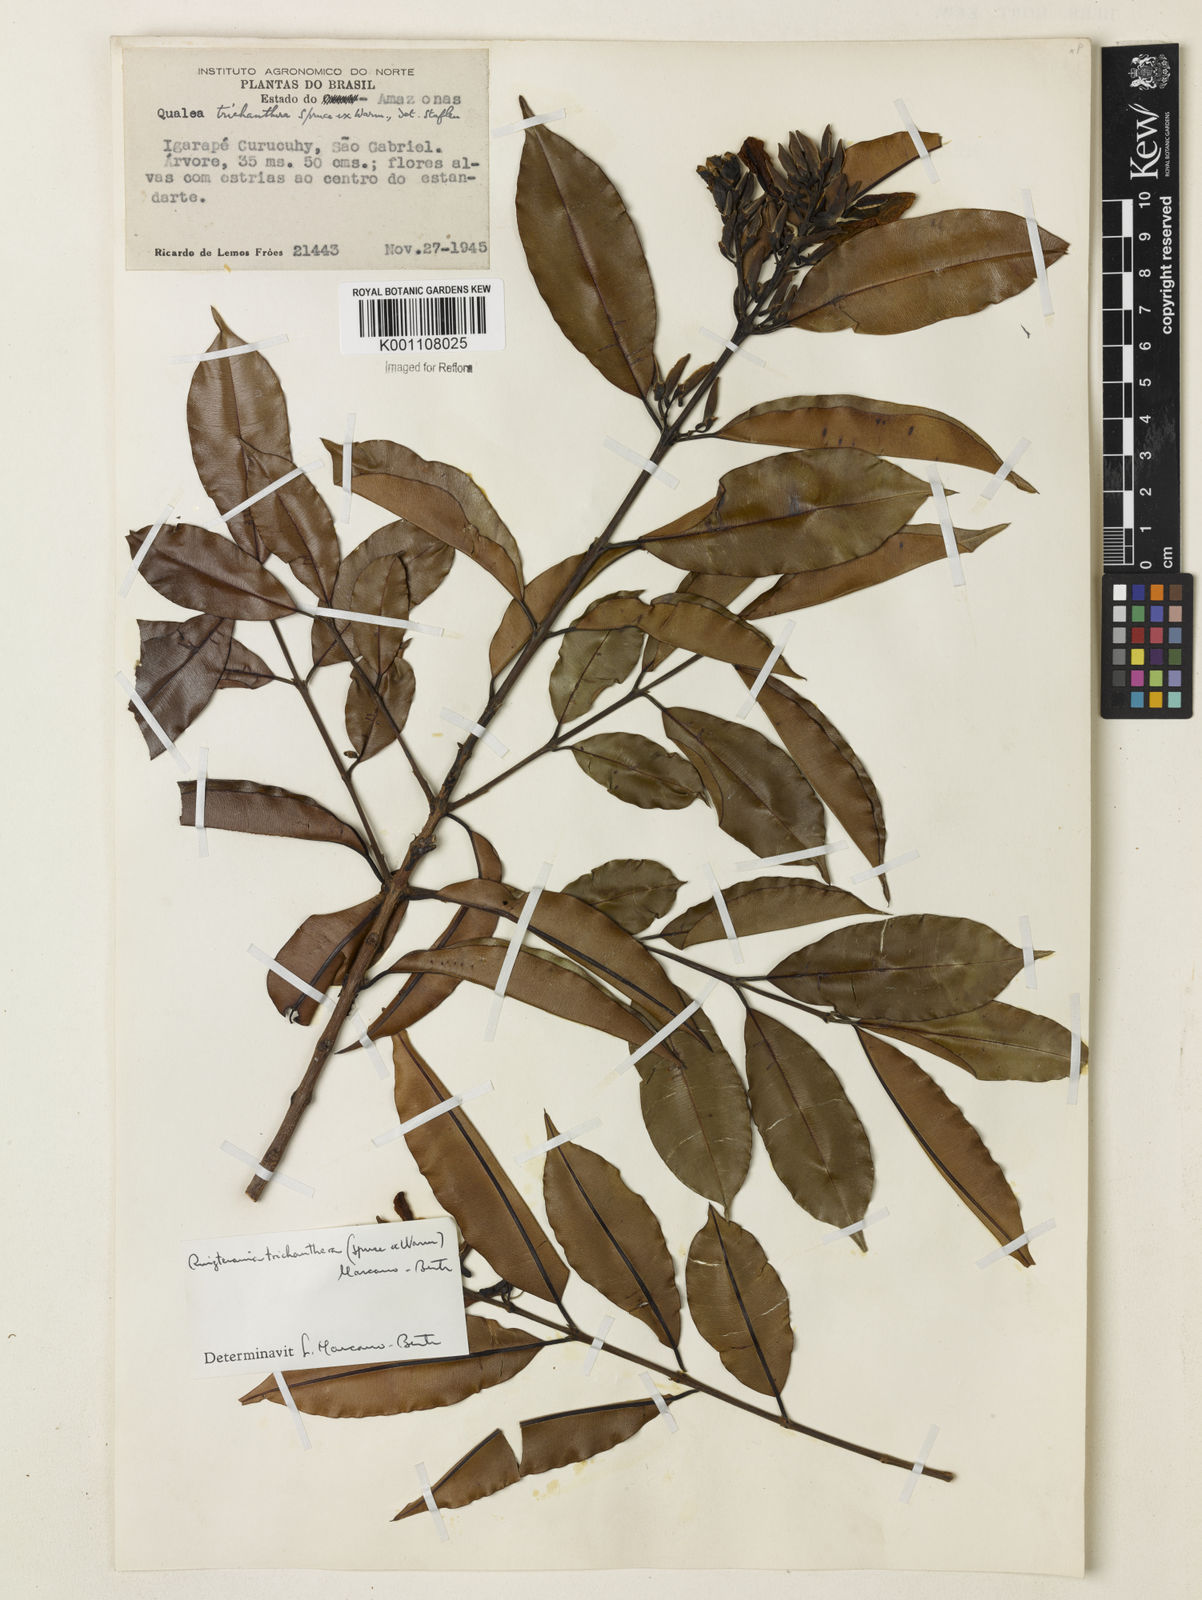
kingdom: Plantae
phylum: Tracheophyta
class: Magnoliopsida
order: Myrtales
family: Vochysiaceae
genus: Ruizterania
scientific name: Ruizterania trichanthera
